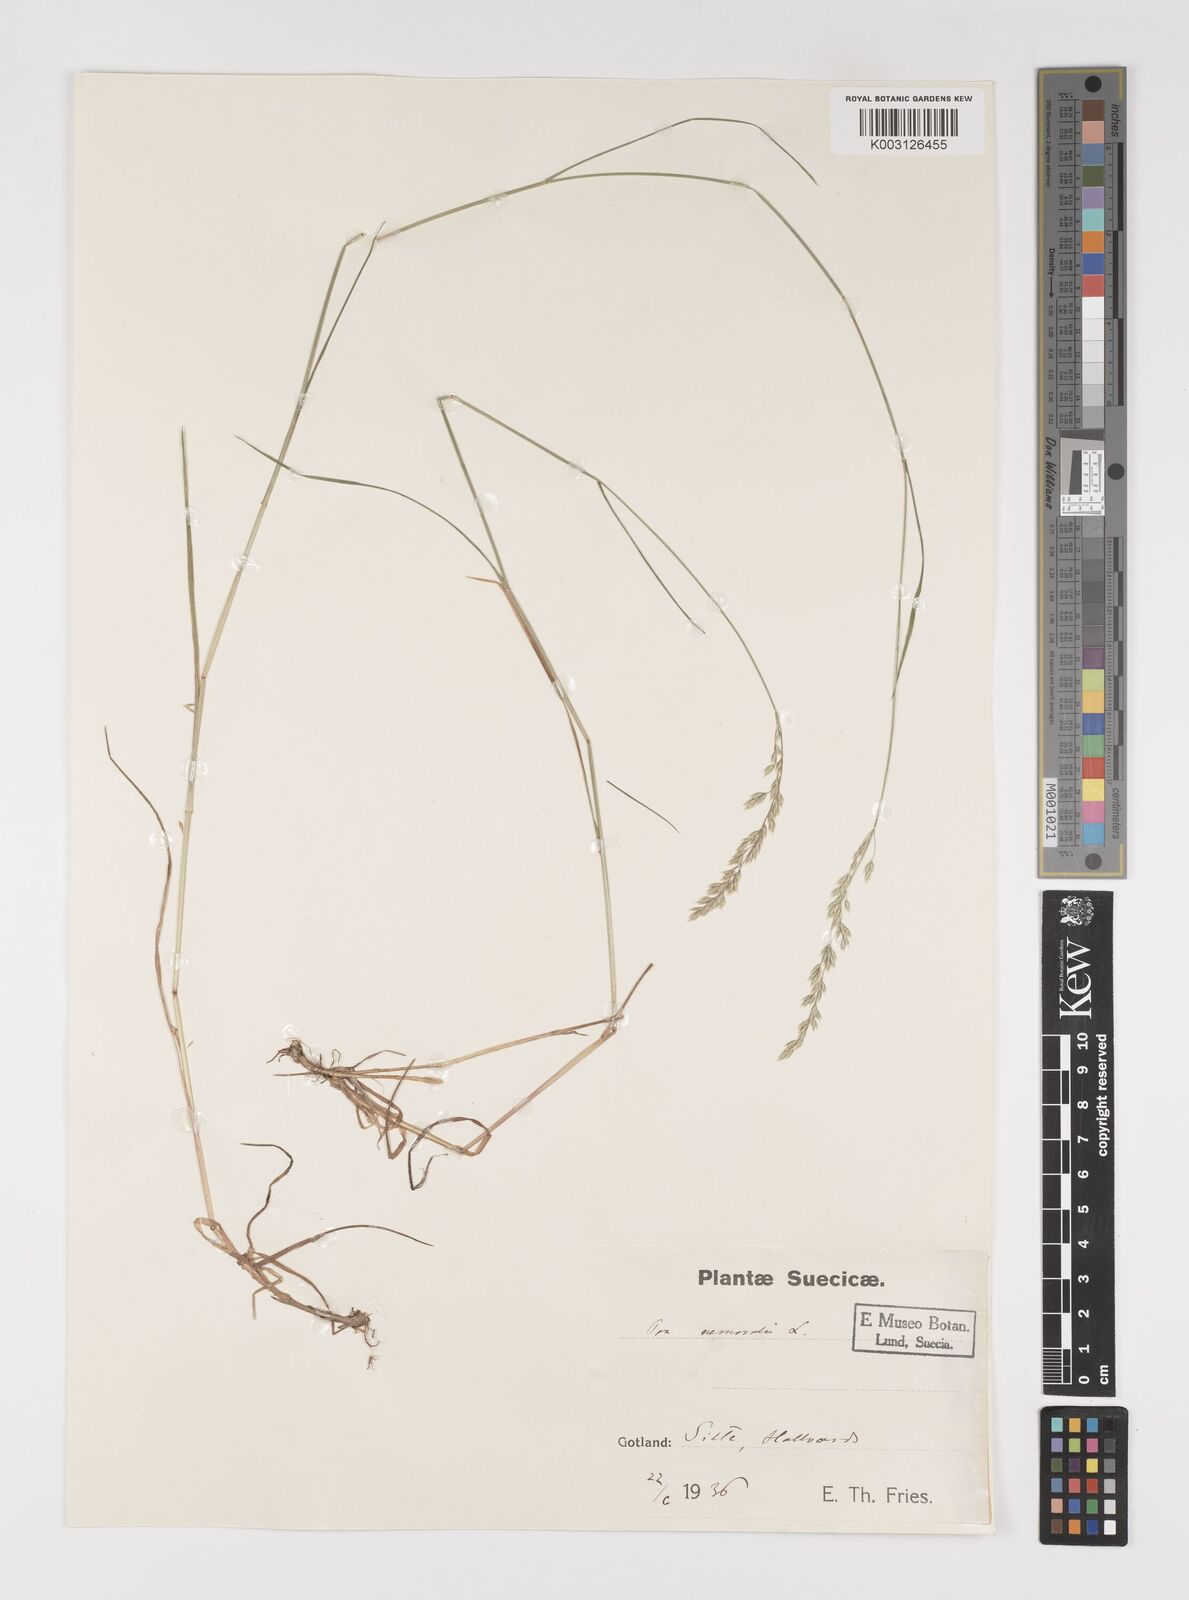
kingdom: Plantae
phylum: Tracheophyta
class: Liliopsida
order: Poales
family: Poaceae
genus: Poa
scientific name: Poa nemoralis
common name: Wood bluegrass
